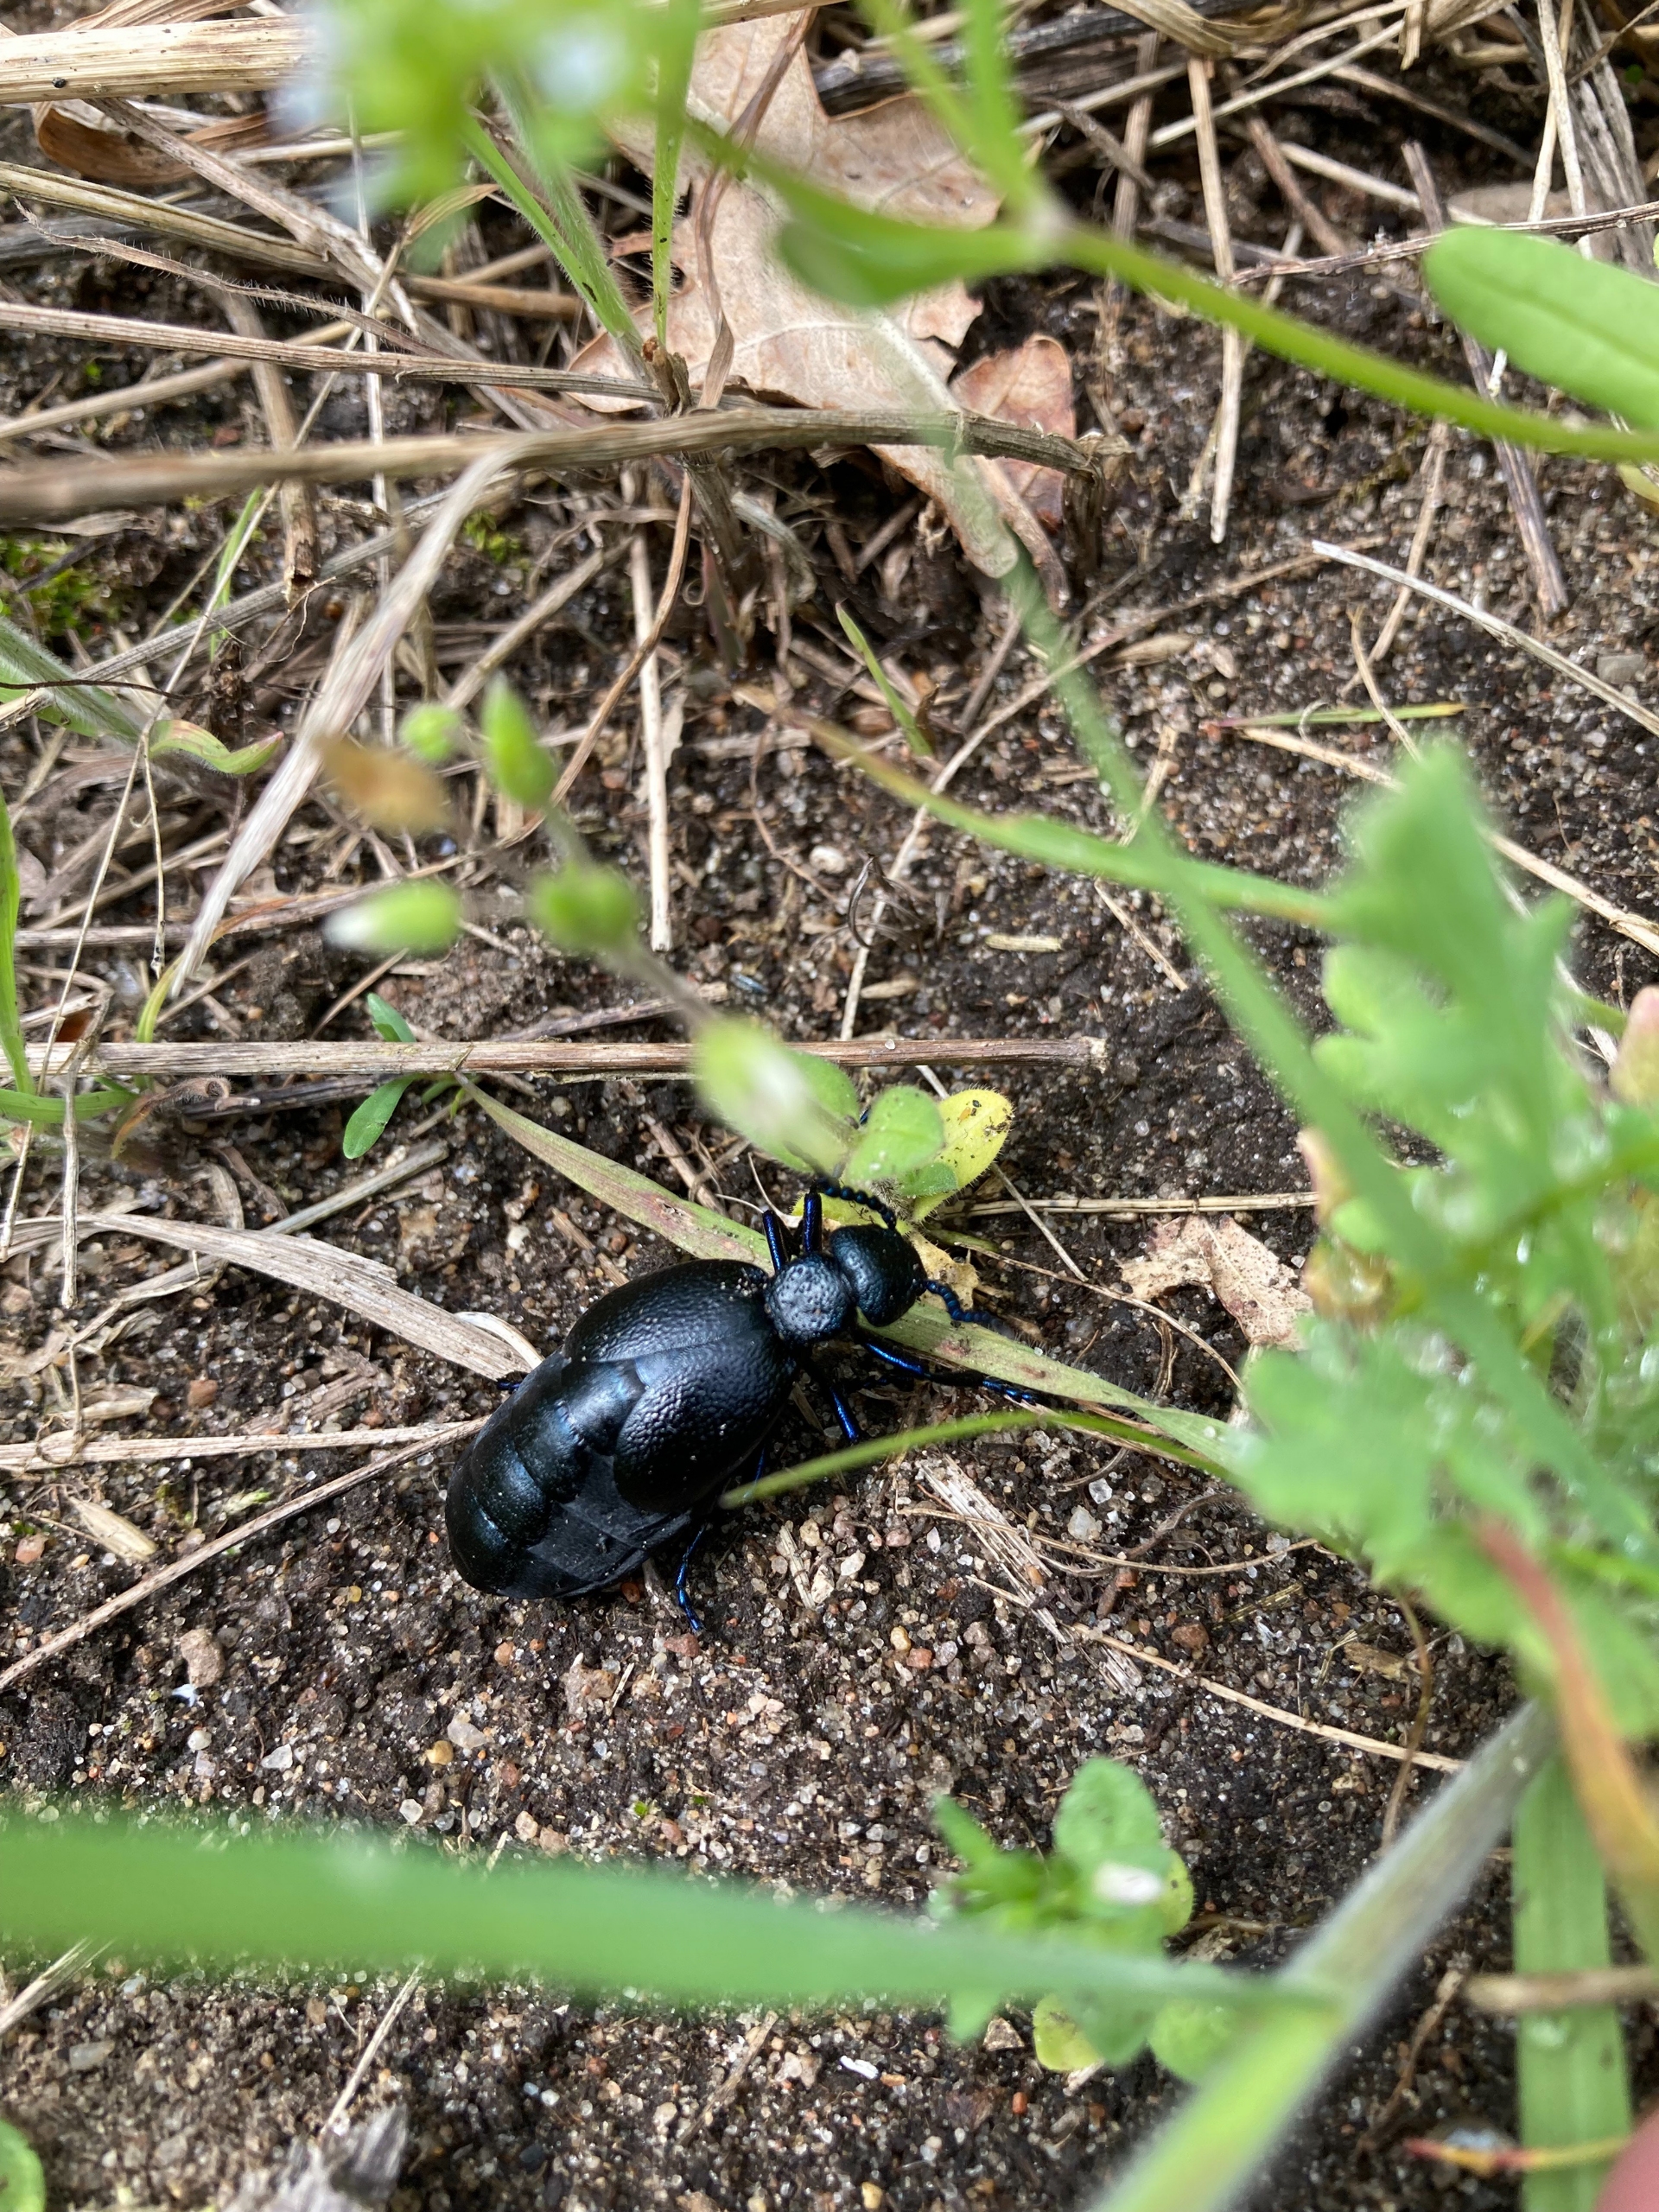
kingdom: Animalia
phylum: Arthropoda
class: Insecta
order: Coleoptera
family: Meloidae
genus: Meloe
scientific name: Meloe proscarabaeus
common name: Sort oliebille
